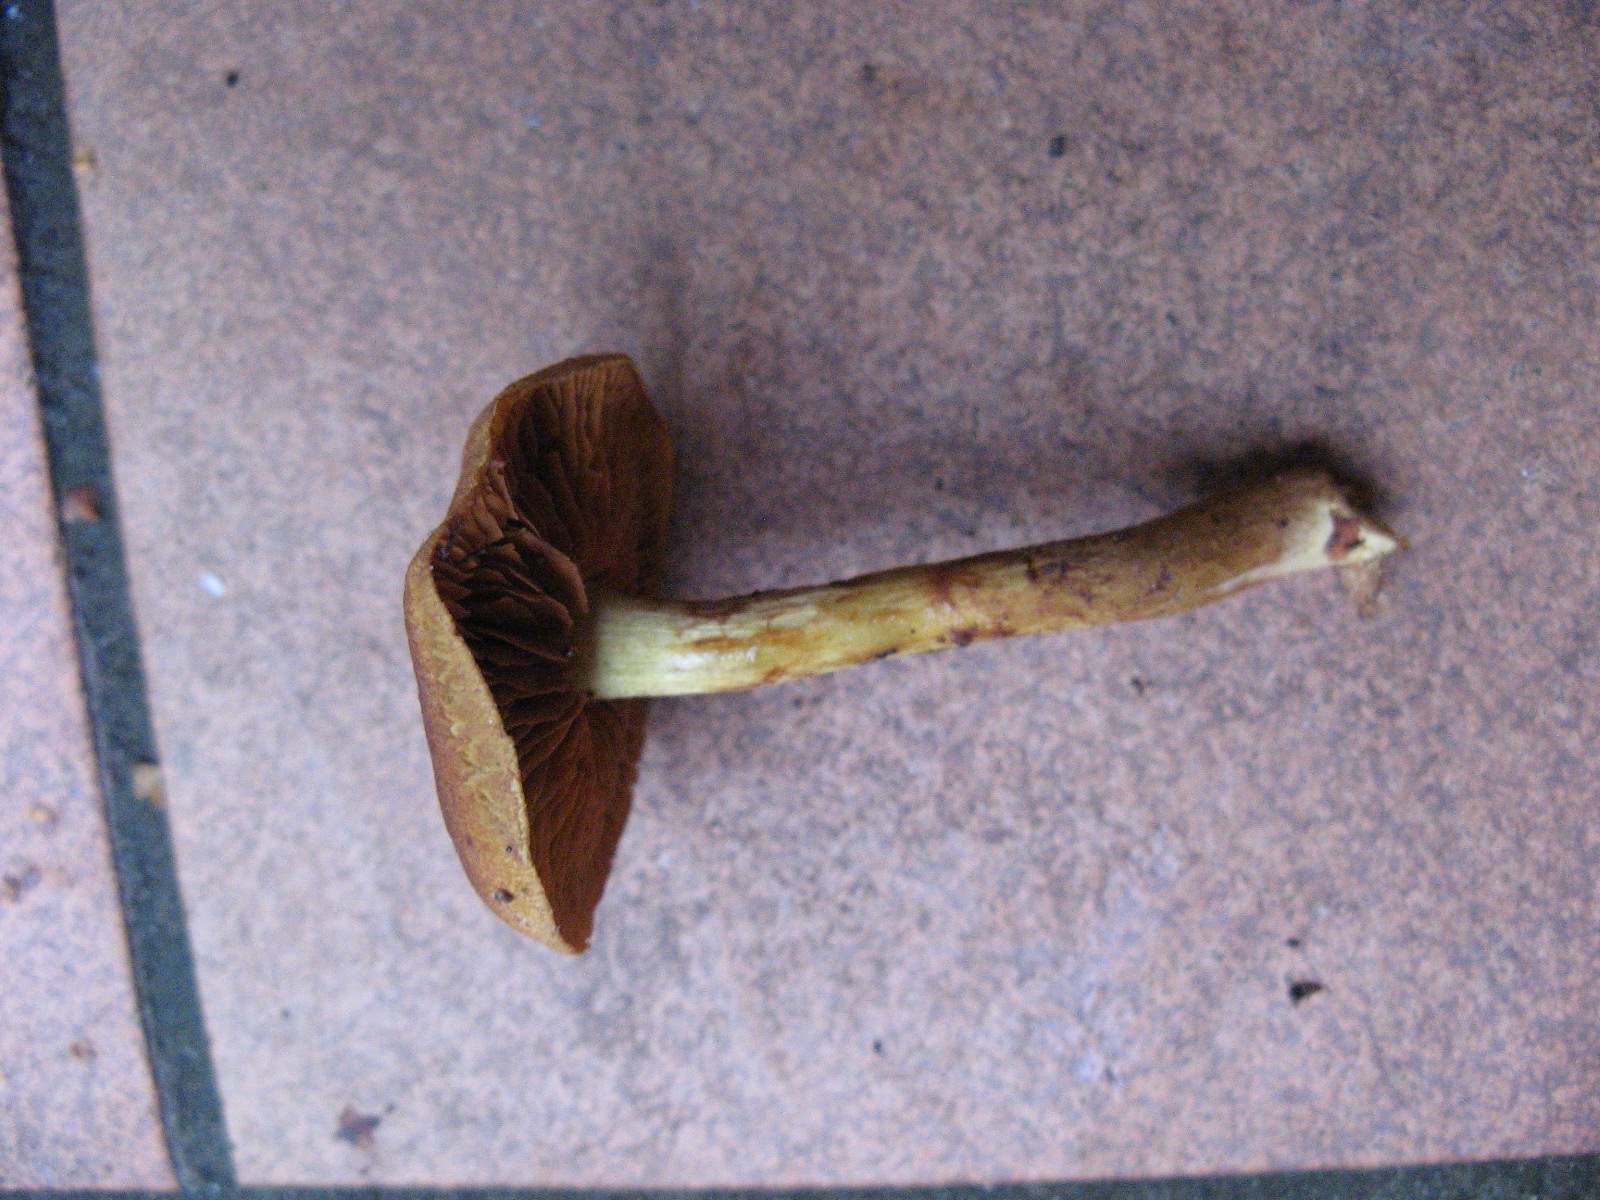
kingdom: Fungi
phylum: Basidiomycota
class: Agaricomycetes
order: Agaricales
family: Cortinariaceae
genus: Cortinarius
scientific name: Cortinarius
